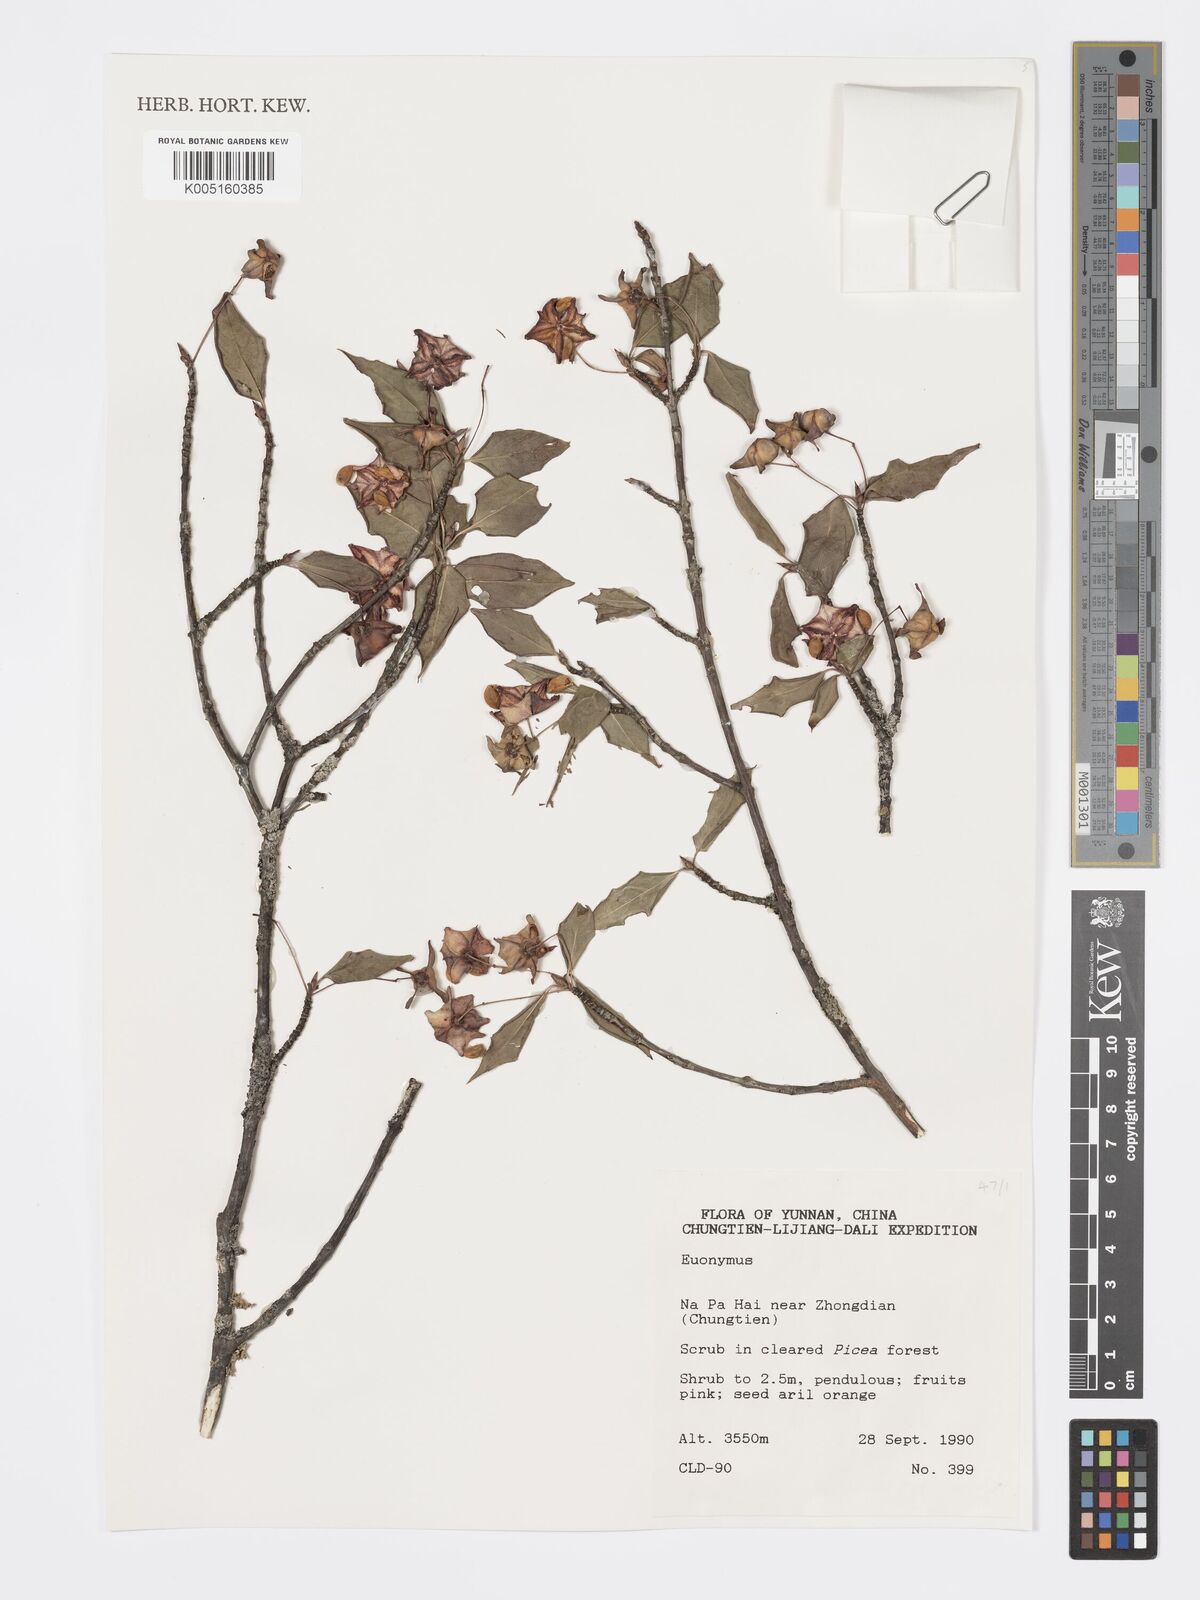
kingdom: Plantae
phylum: Tracheophyta
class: Magnoliopsida
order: Celastrales
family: Celastraceae
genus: Euonymus
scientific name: Euonymus
